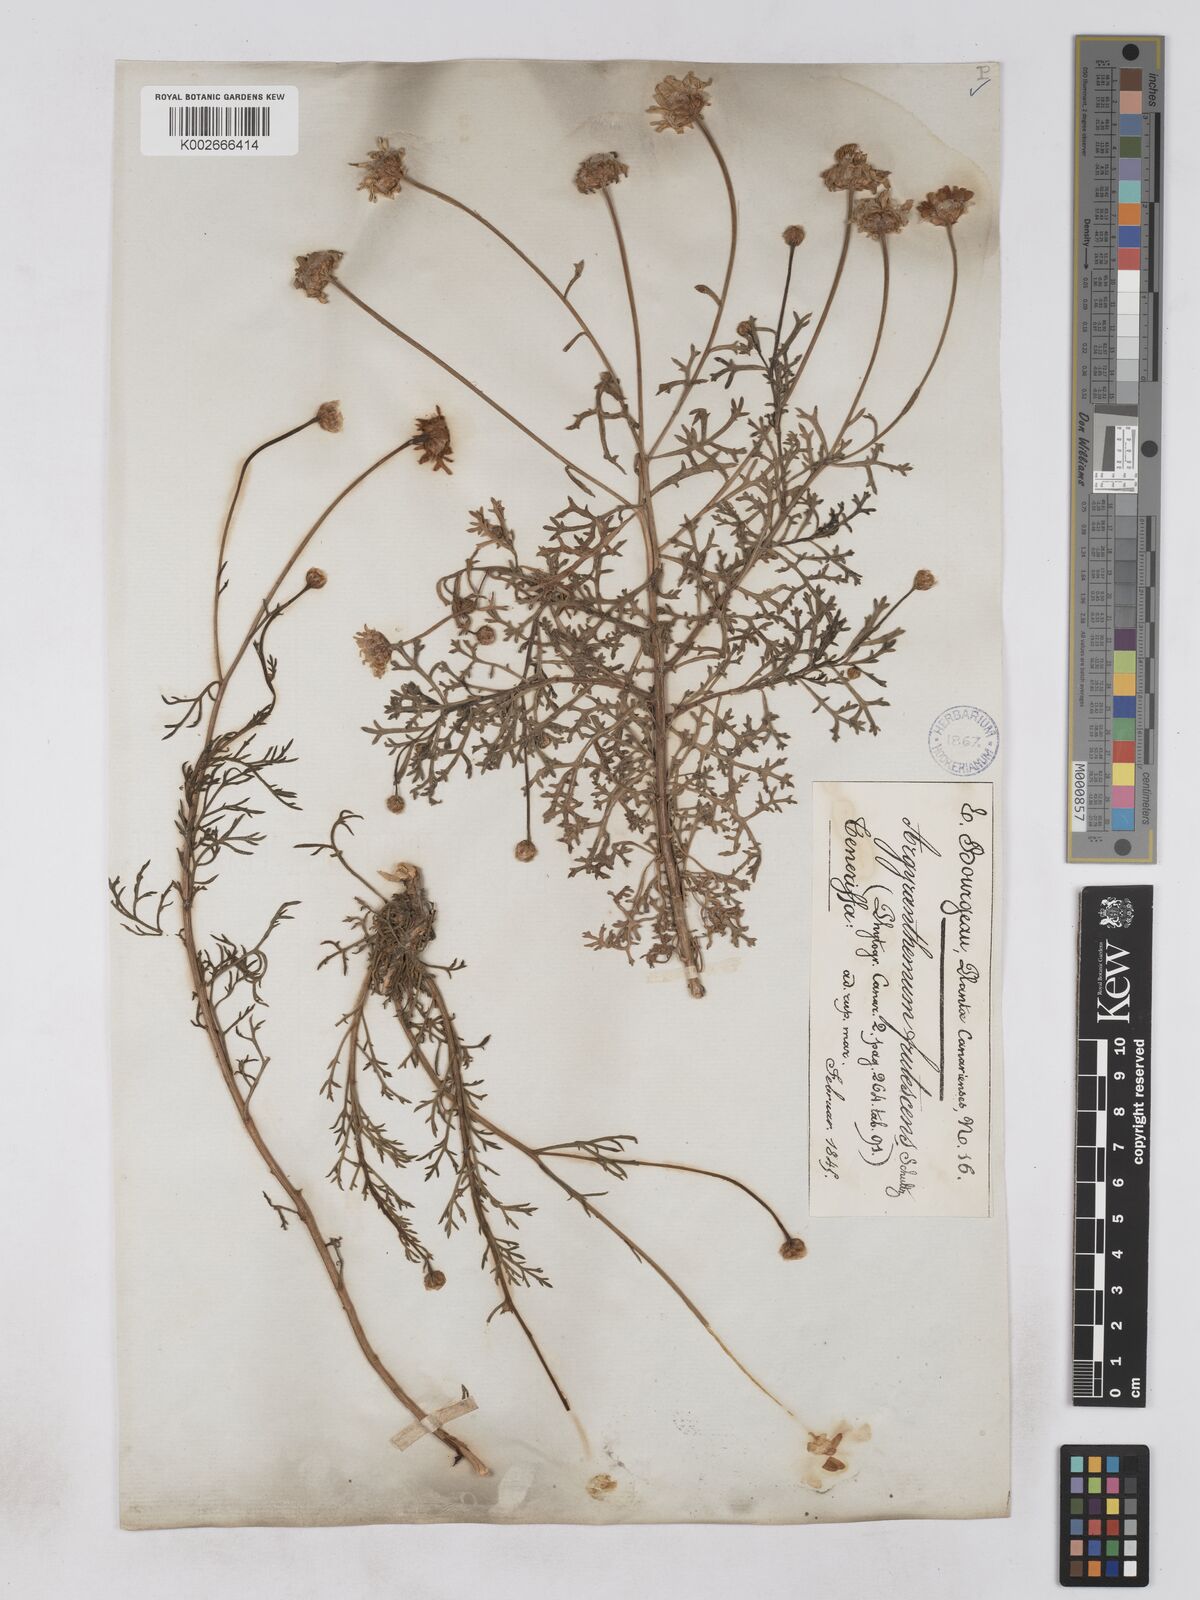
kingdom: Plantae
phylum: Tracheophyta
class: Magnoliopsida
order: Asterales
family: Asteraceae
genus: Argyranthemum
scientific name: Argyranthemum frutescens
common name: Paris daisy
